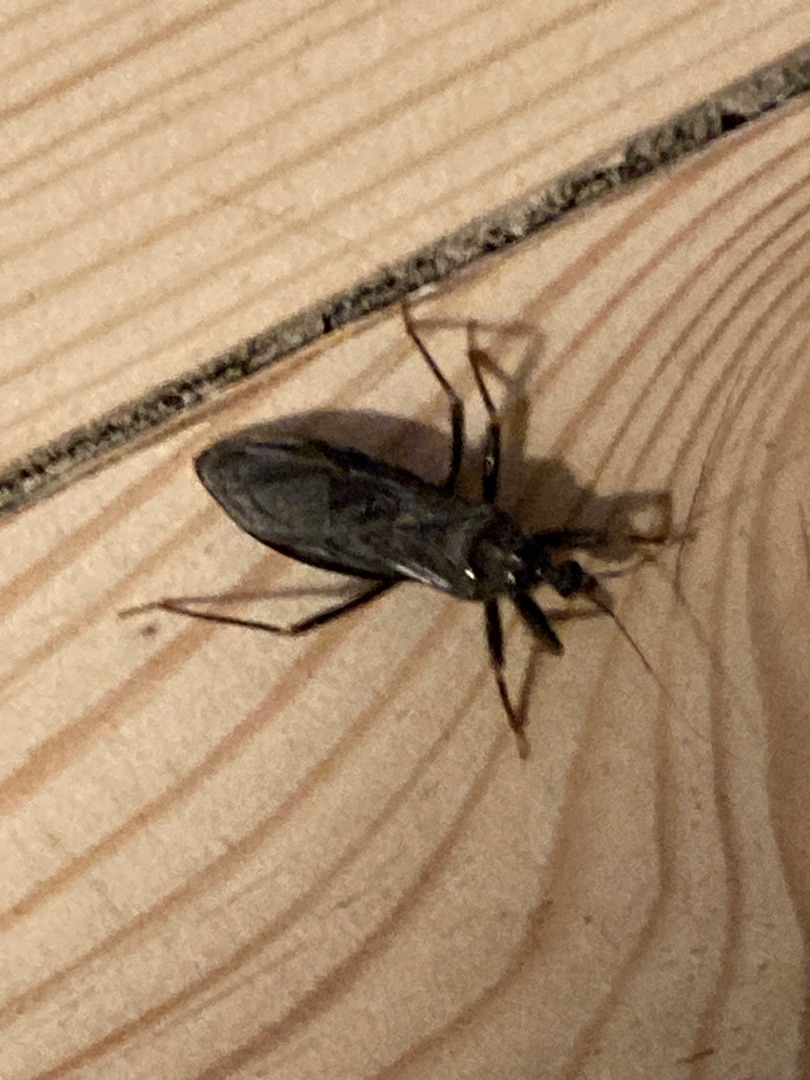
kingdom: Animalia
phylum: Arthropoda
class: Insecta
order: Hemiptera
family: Reduviidae
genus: Reduvius
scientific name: Reduvius personatus
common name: Skarntæge
